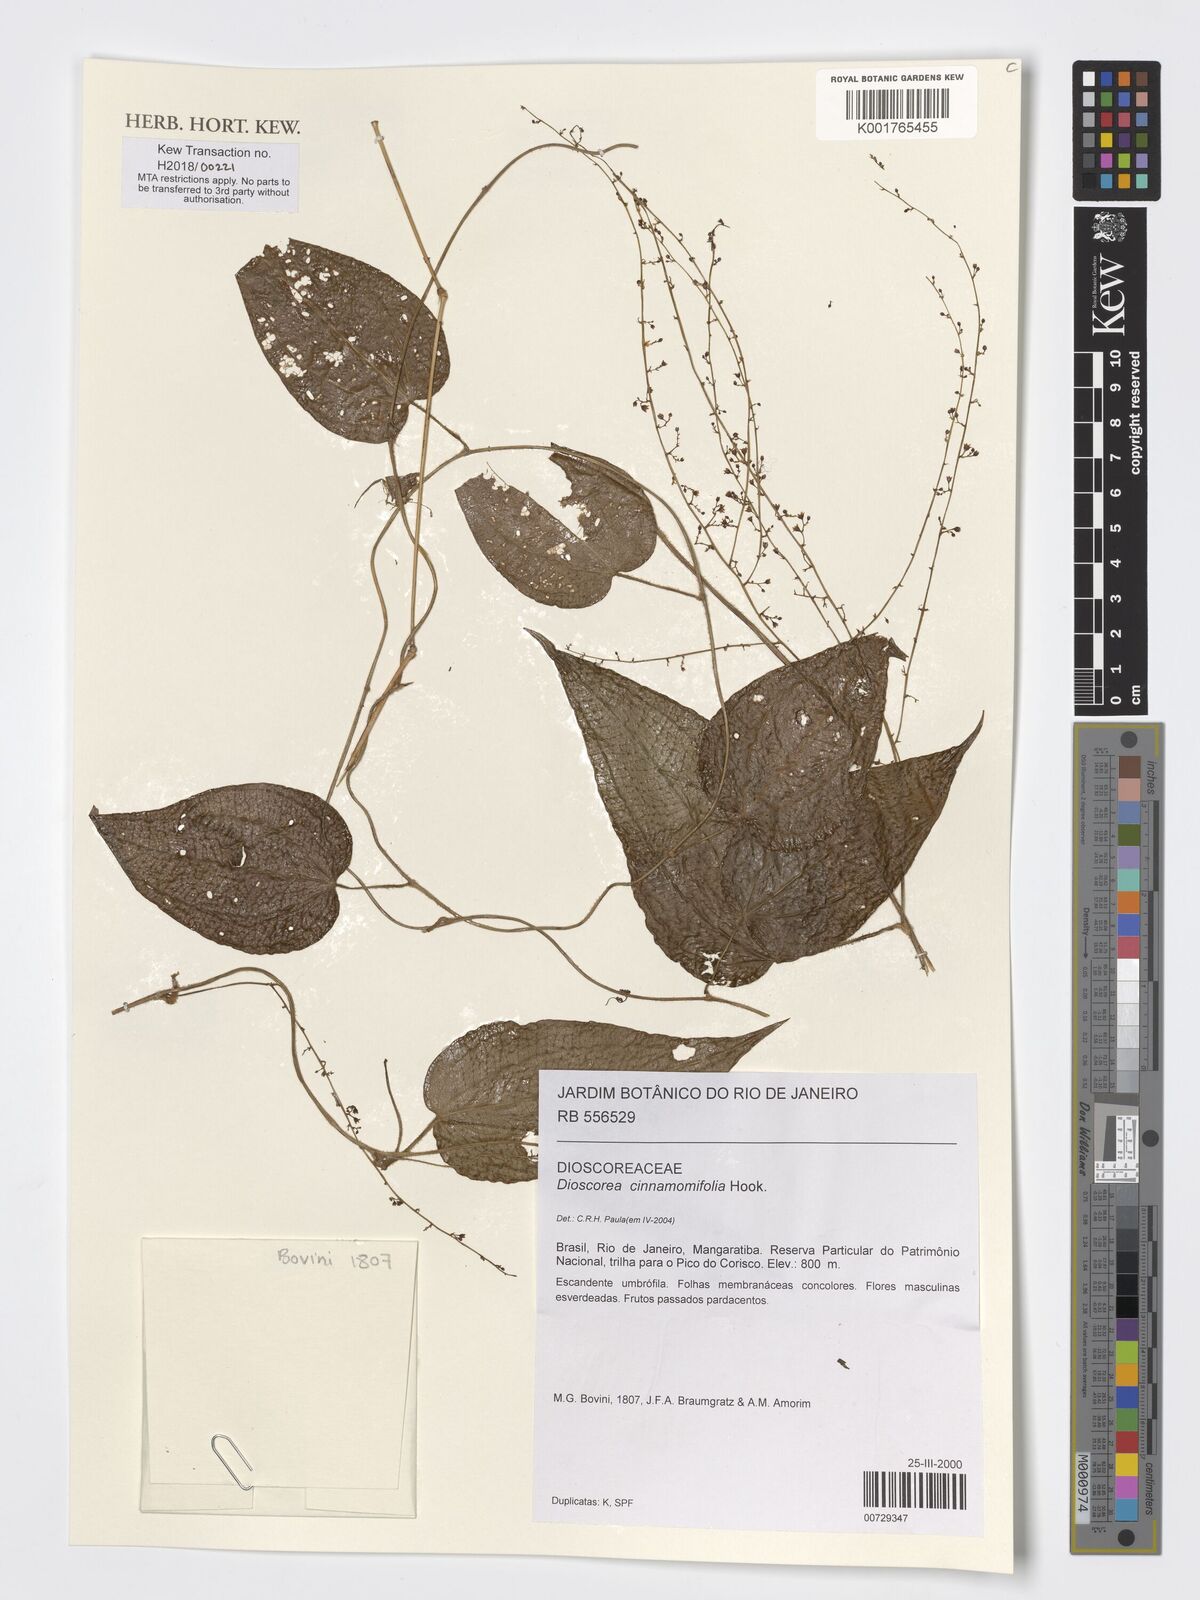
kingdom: Plantae
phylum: Tracheophyta
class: Liliopsida
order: Dioscoreales
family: Dioscoreaceae
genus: Dioscorea
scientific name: Dioscorea cinnamomifolia
